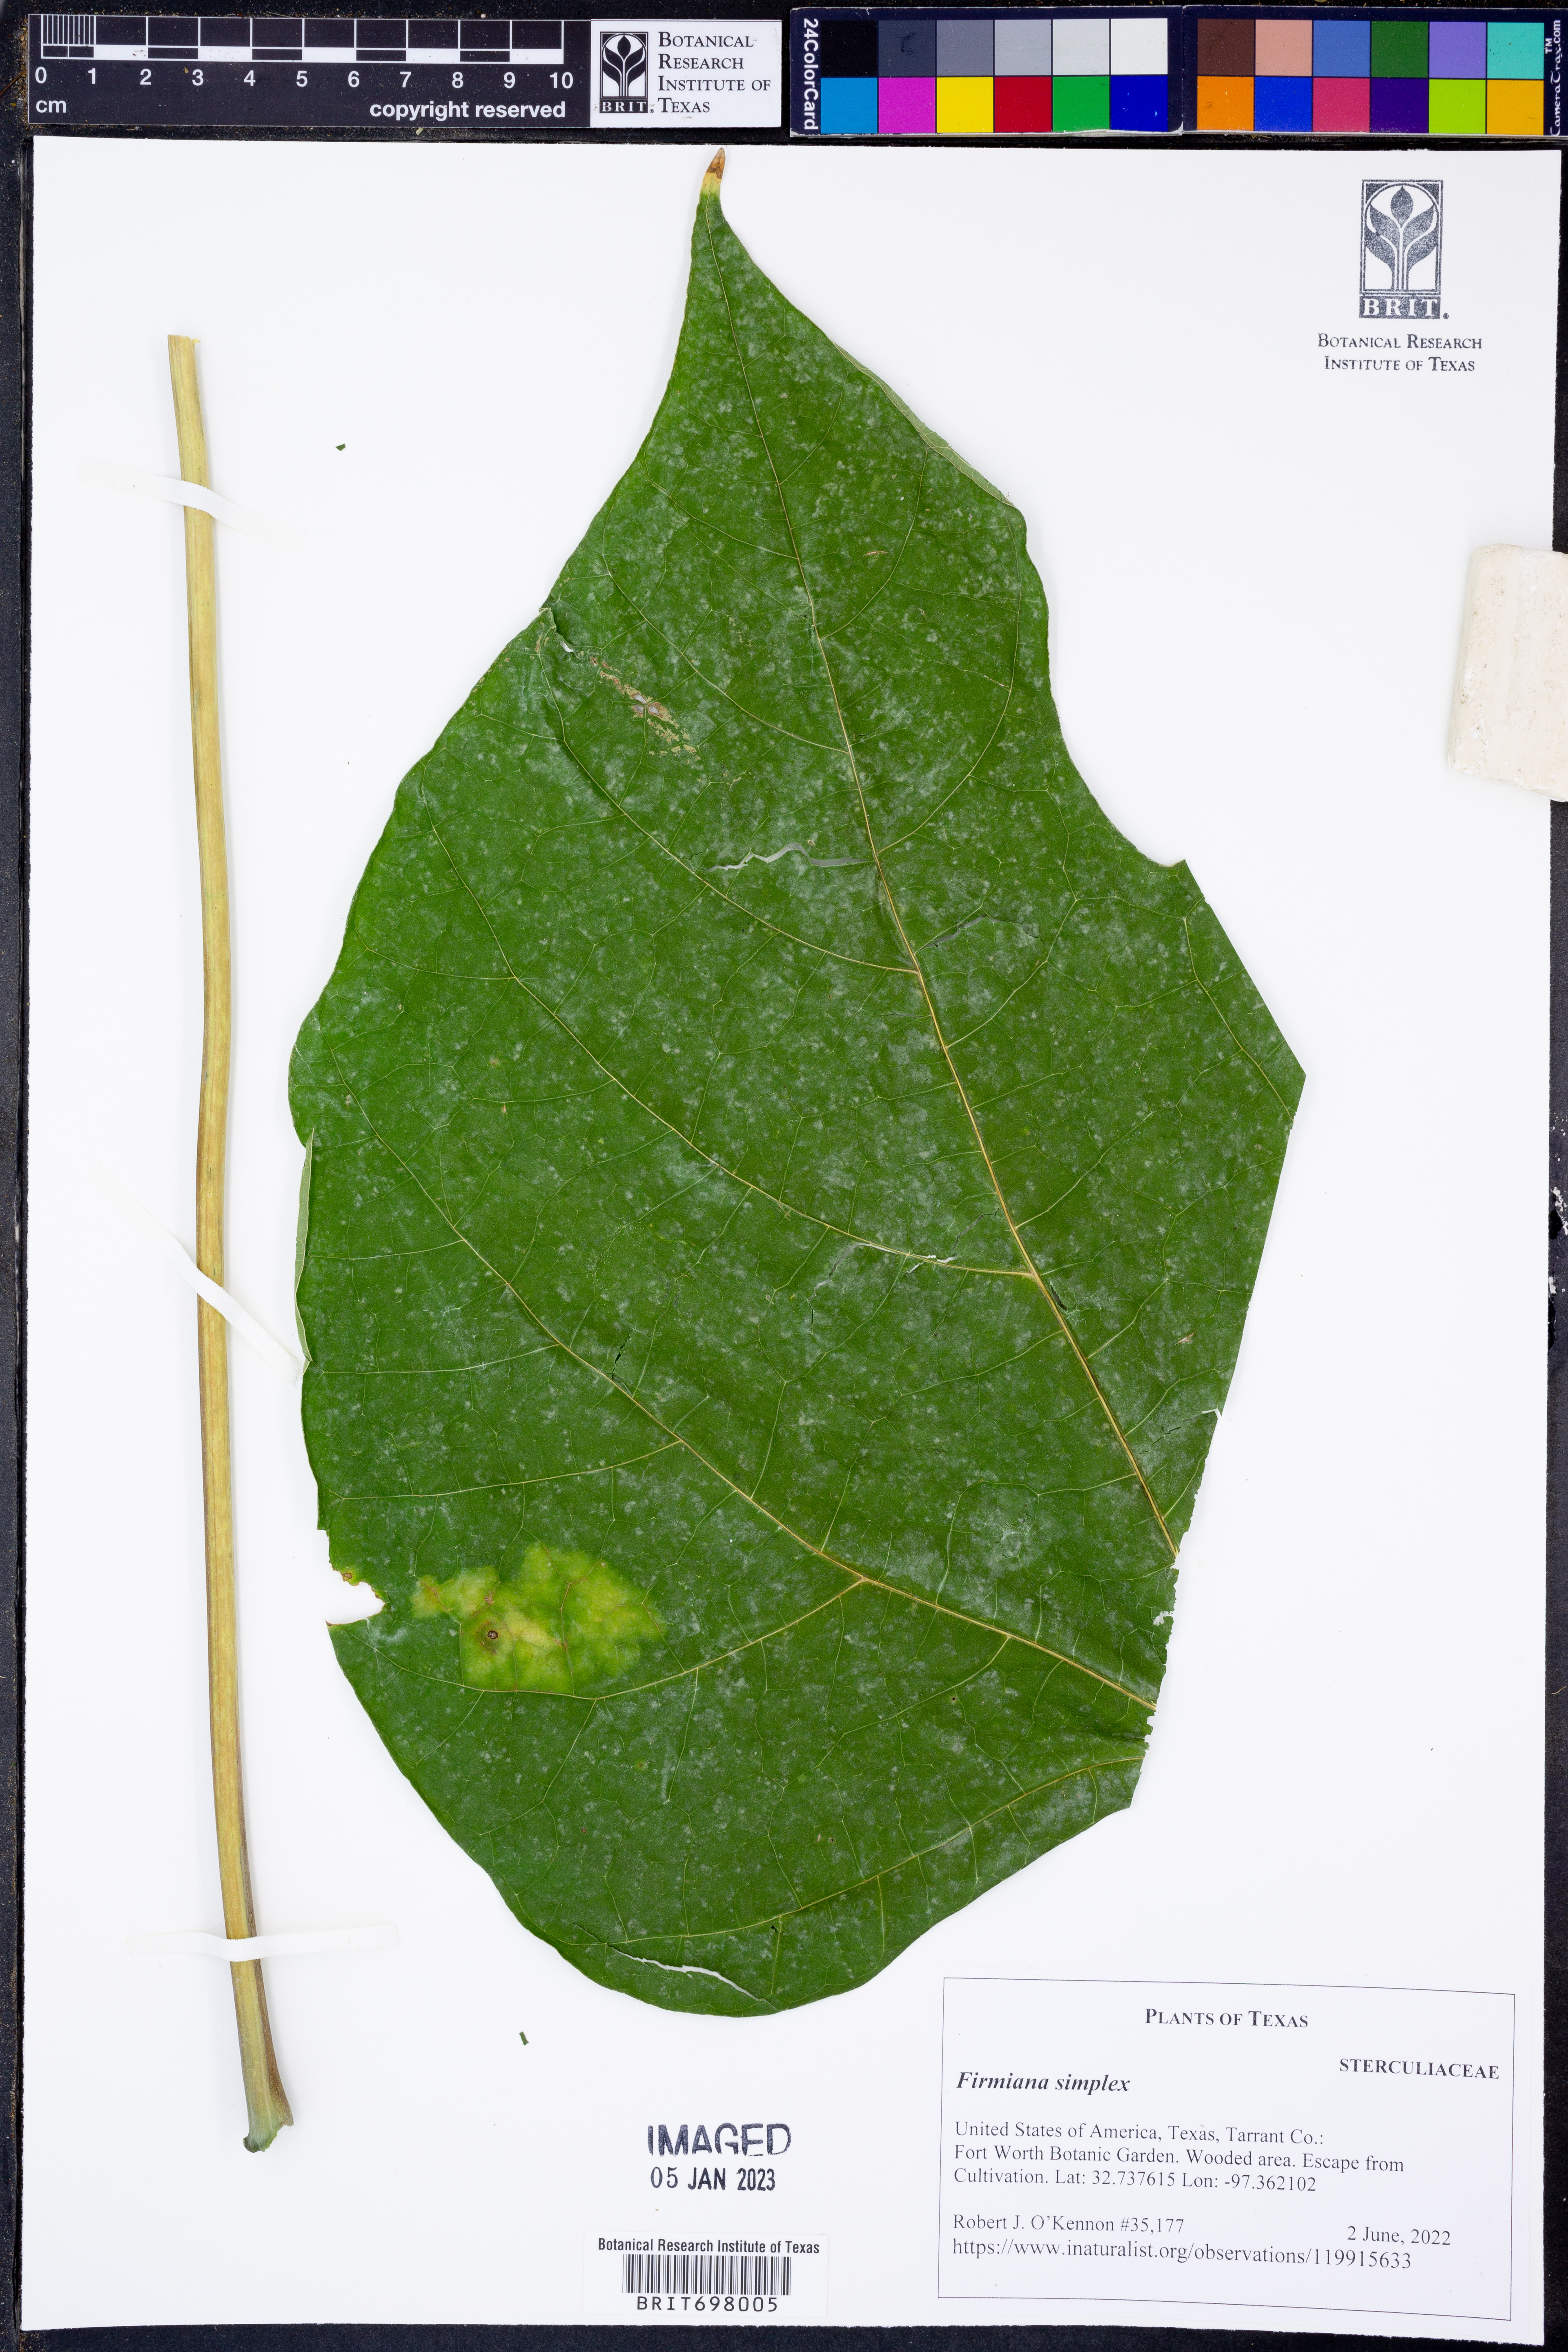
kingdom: Plantae
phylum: Tracheophyta
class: Magnoliopsida
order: Malvales
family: Malvaceae
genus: Firmiana
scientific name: Firmiana simplex
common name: Chinese parasoltree
